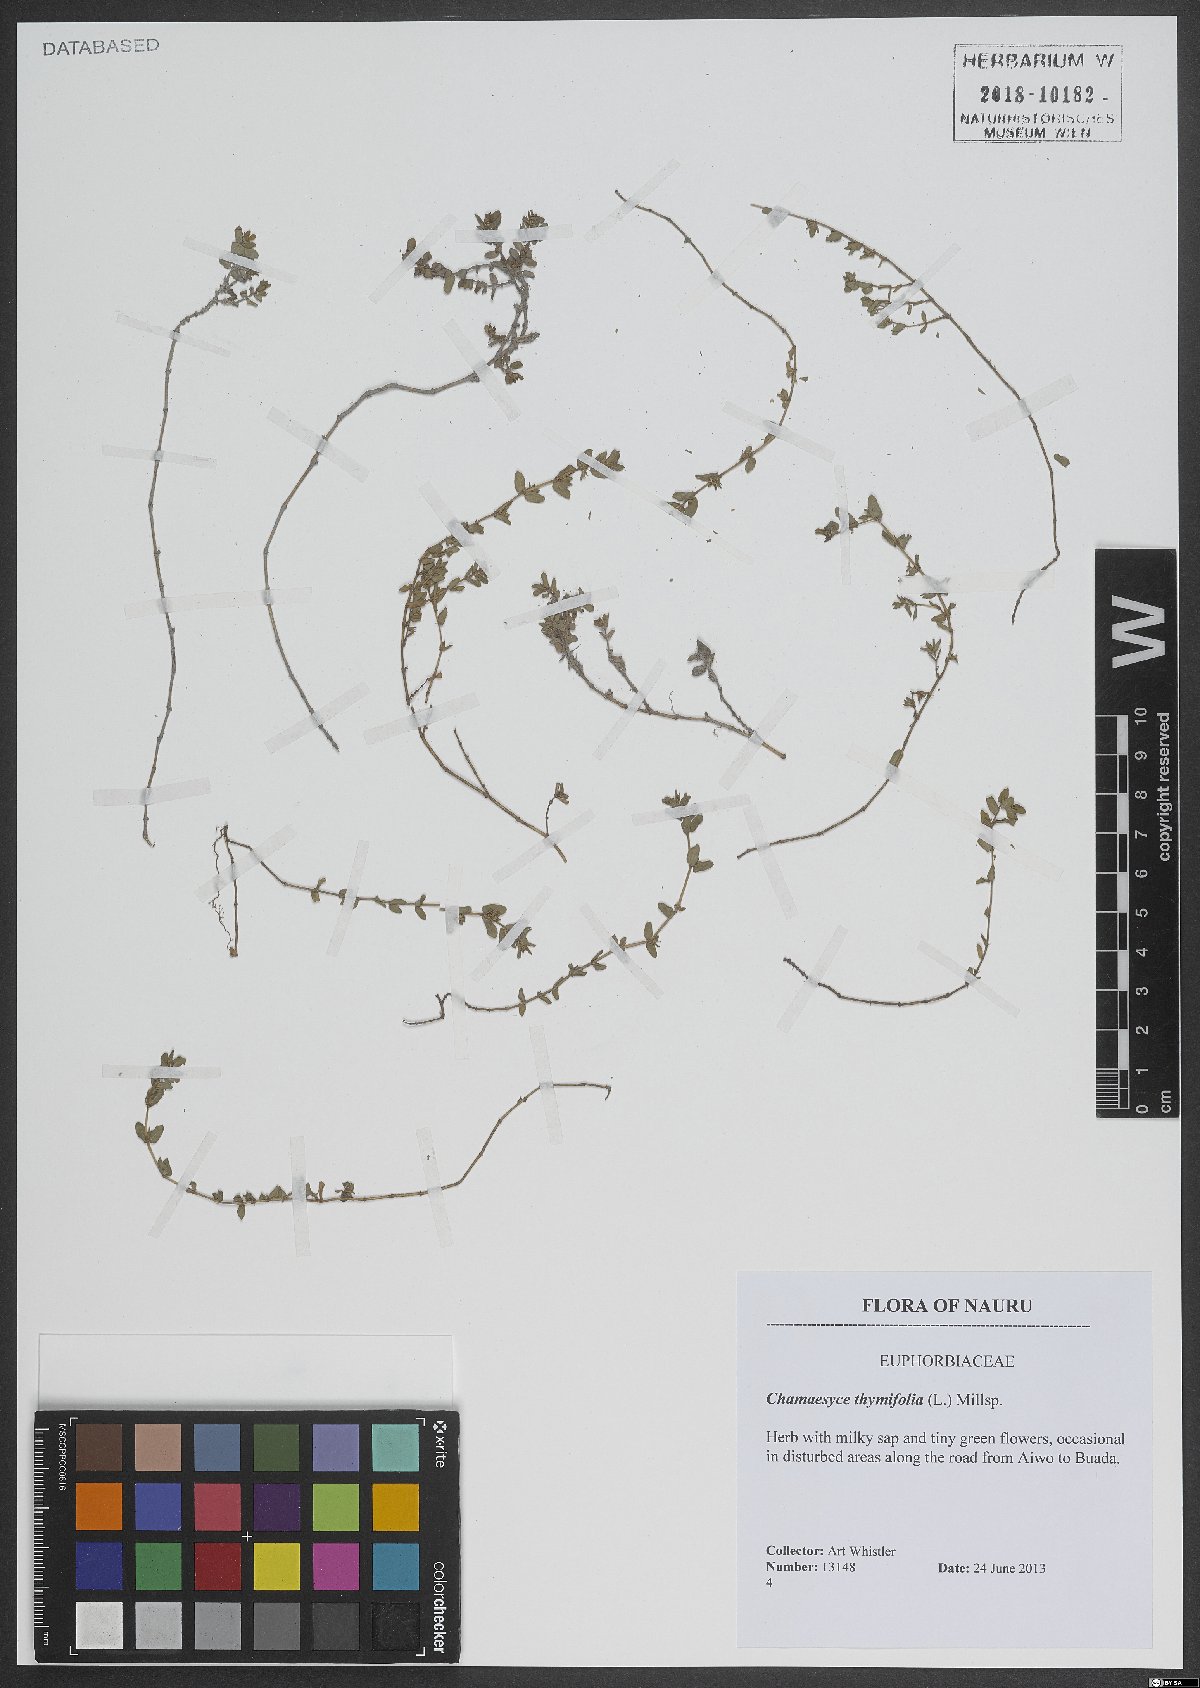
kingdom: Plantae
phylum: Tracheophyta
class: Magnoliopsida
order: Malpighiales
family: Euphorbiaceae
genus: Euphorbia
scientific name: Euphorbia thymifolia
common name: Gulf sandmat
